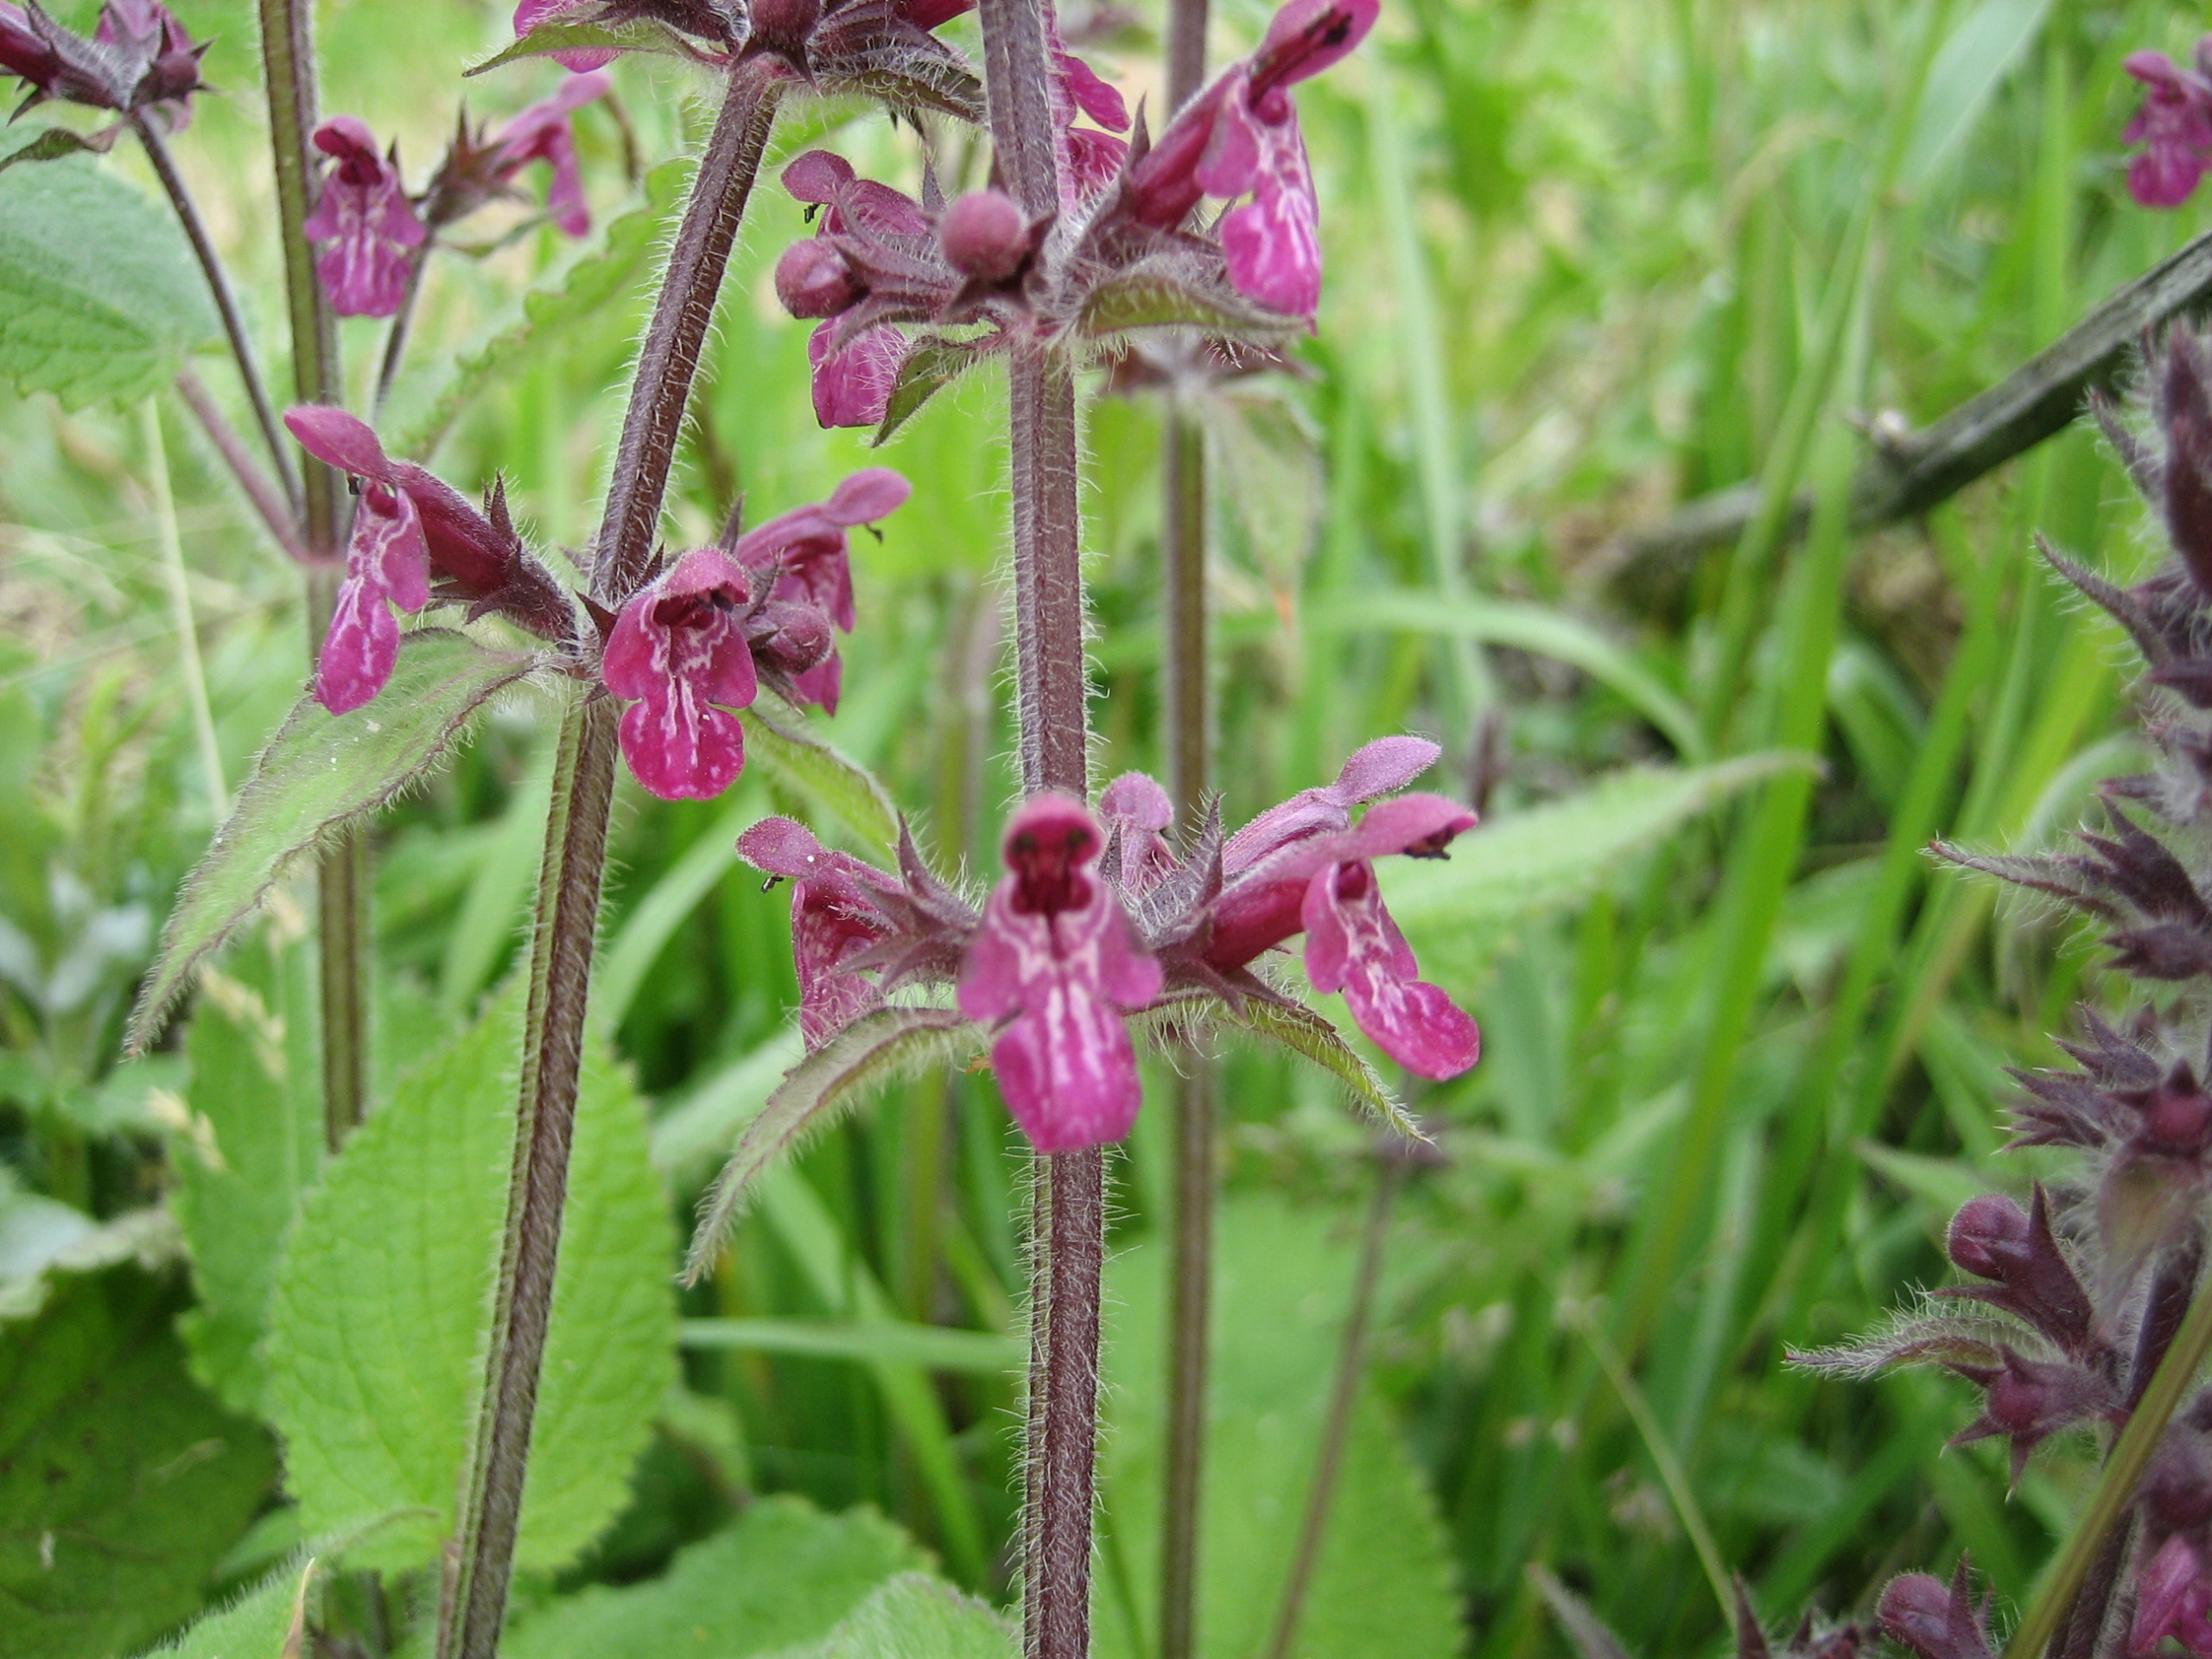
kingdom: Plantae
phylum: Tracheophyta
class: Magnoliopsida
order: Lamiales
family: Lamiaceae
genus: Stachys
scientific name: Stachys sylvatica
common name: Skov-galtetand
